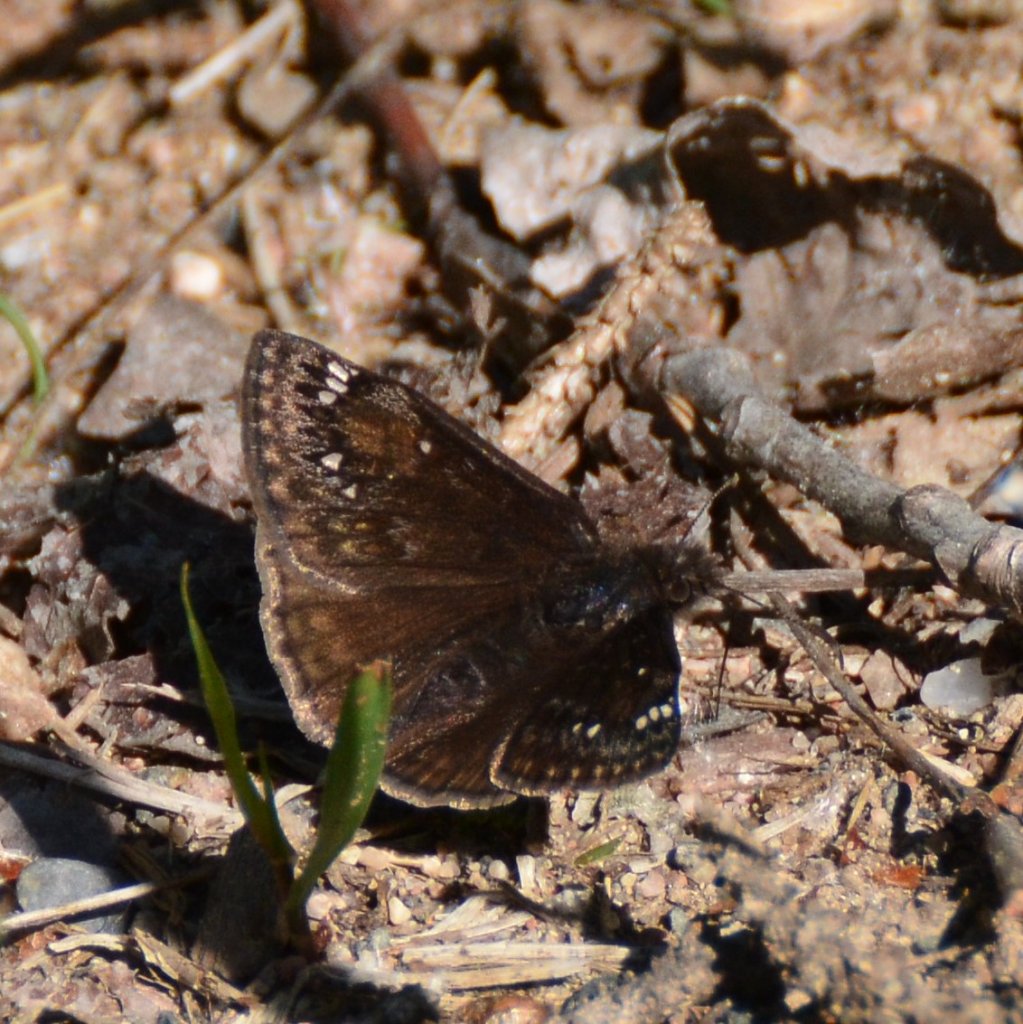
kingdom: Animalia
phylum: Arthropoda
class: Insecta
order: Lepidoptera
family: Hesperiidae
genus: Gesta
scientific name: Gesta
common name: Juvenal's Duskywing
